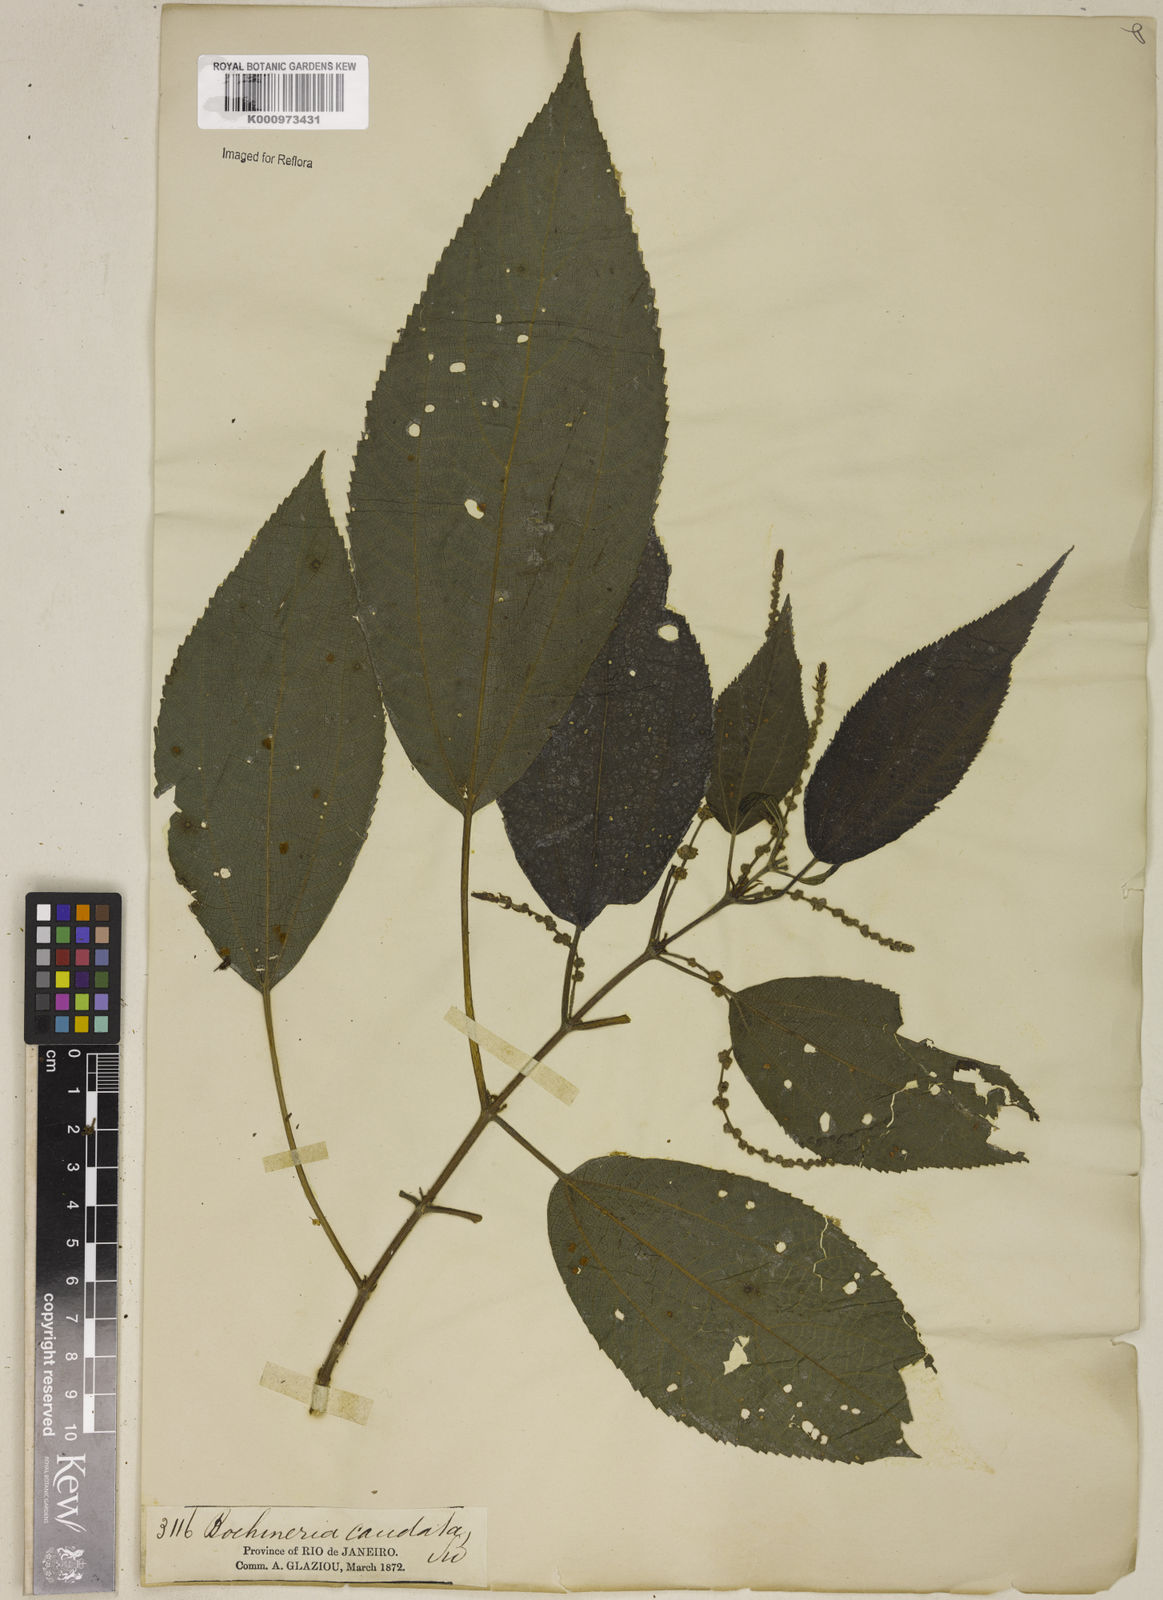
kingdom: Plantae
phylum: Tracheophyta
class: Magnoliopsida
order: Rosales
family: Urticaceae
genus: Boehmeria
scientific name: Boehmeria caudata
